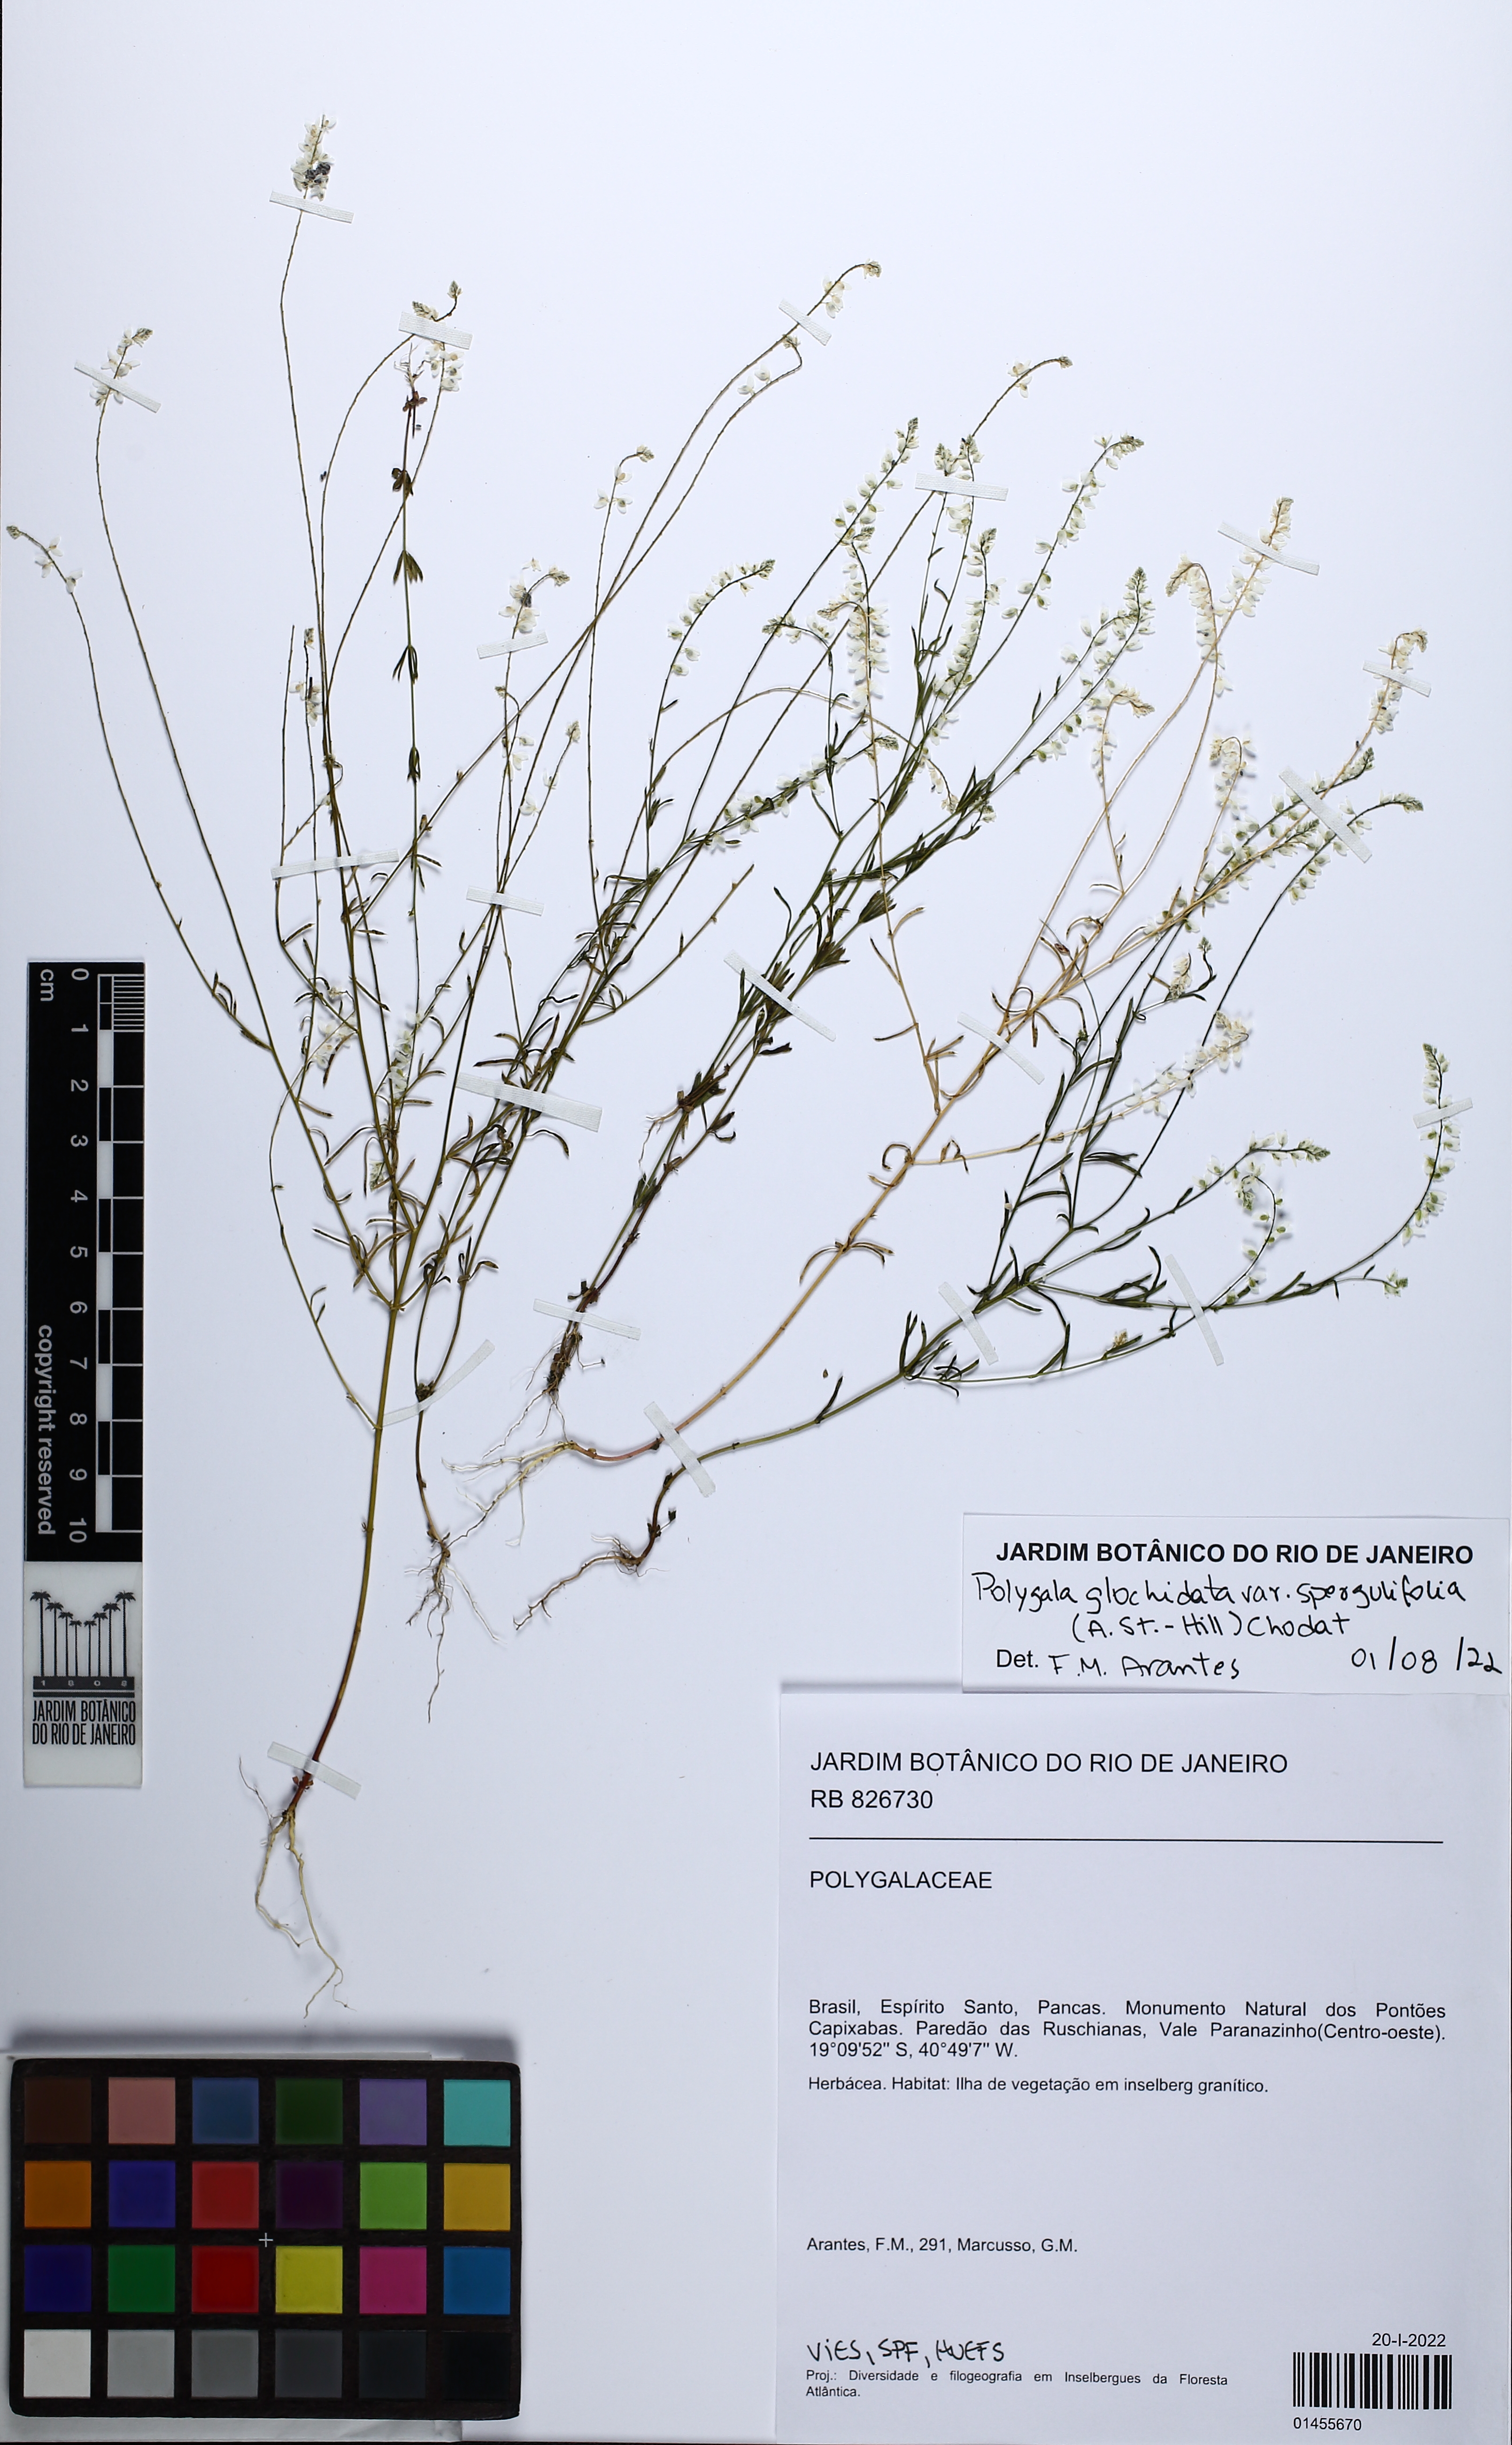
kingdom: Plantae
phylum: Tracheophyta
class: Magnoliopsida
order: Fabales
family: Polygalaceae
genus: Polygala
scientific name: Polygala glochidiata
